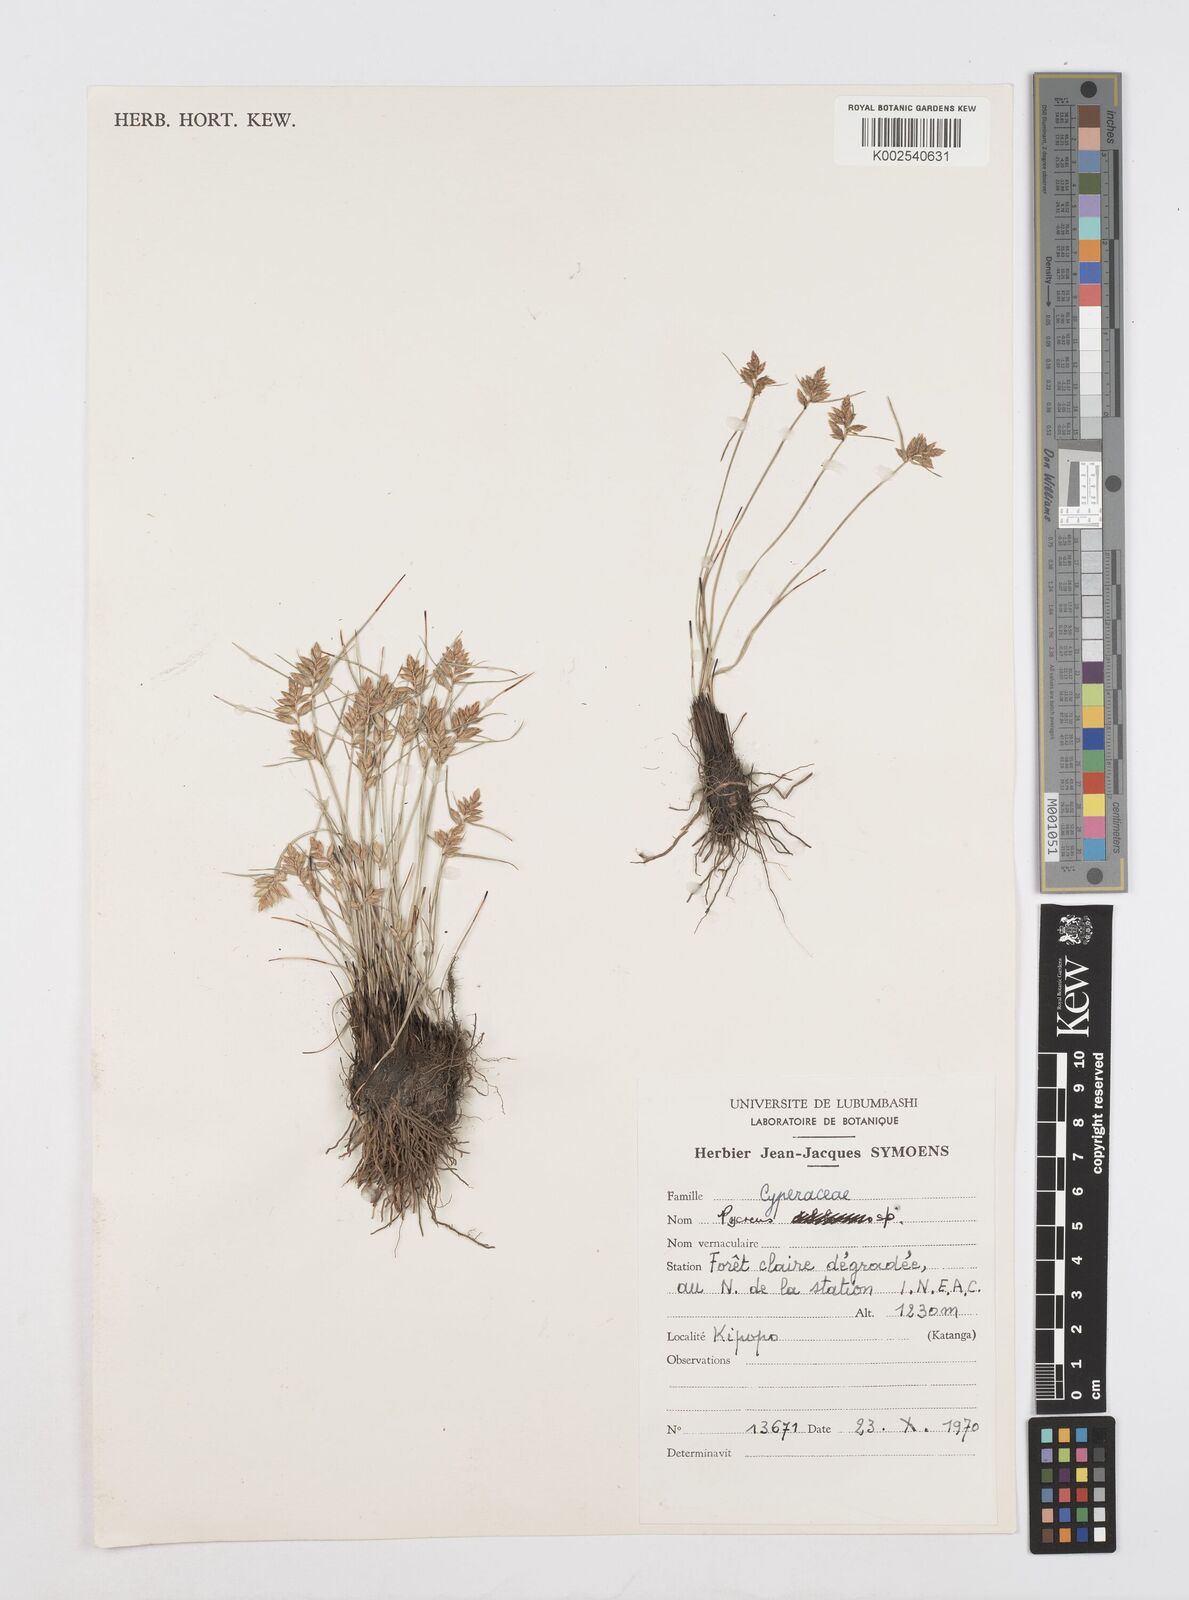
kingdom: Plantae
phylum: Tracheophyta
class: Liliopsida
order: Poales
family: Cyperaceae
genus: Cyperus
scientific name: Cyperus nigricans
